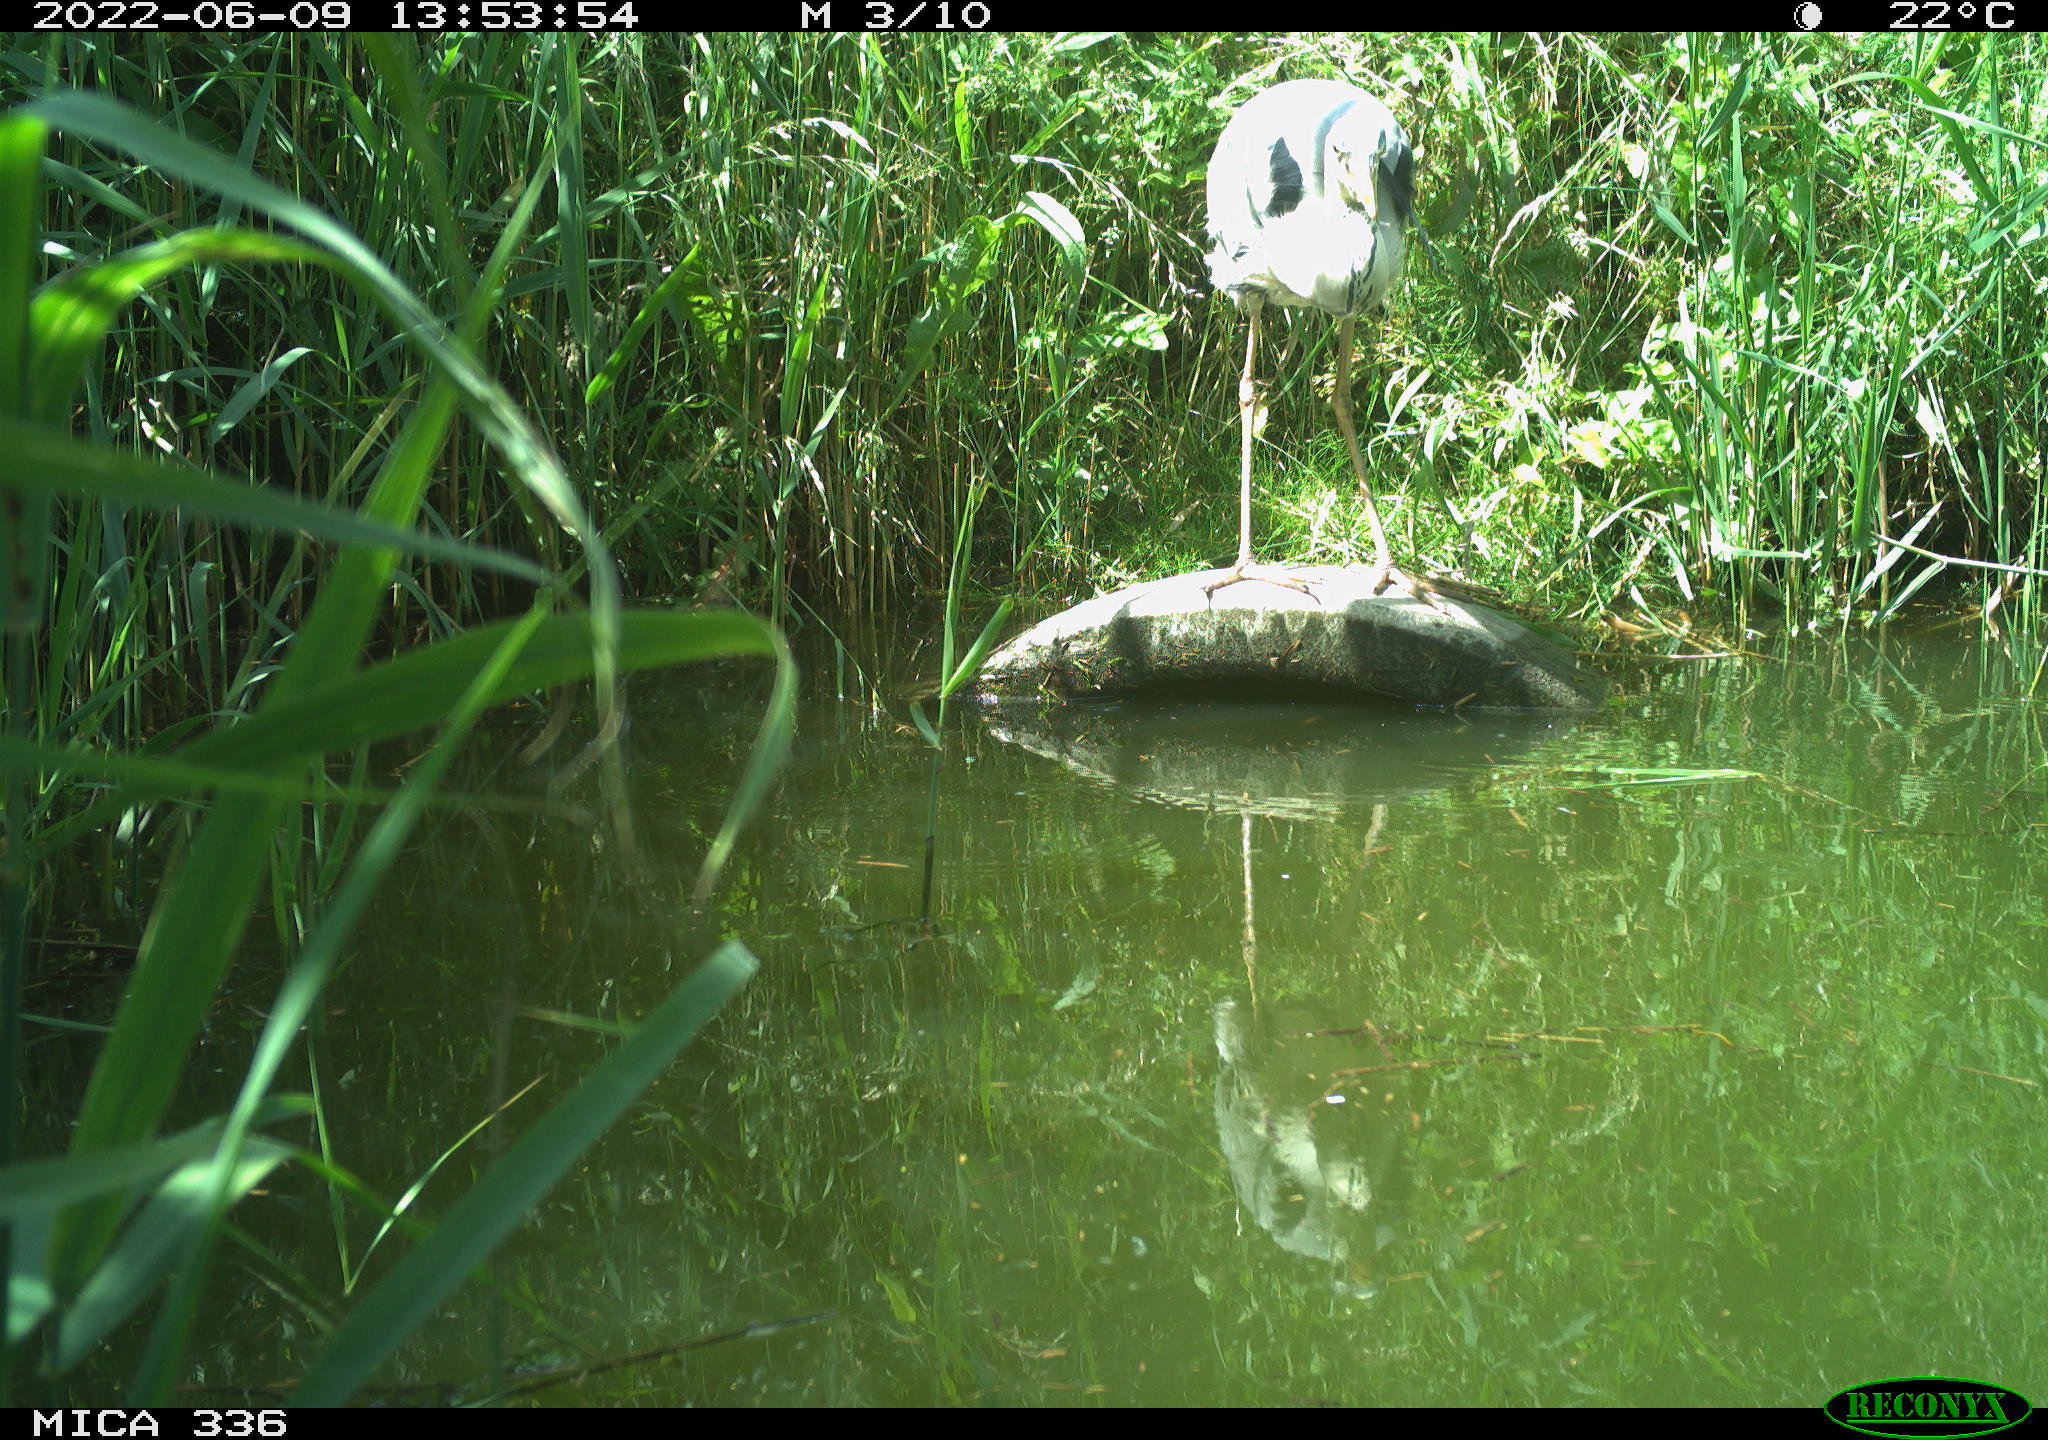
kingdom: Animalia
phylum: Chordata
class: Aves
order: Pelecaniformes
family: Ardeidae
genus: Ardea
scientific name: Ardea cinerea
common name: Grey heron
